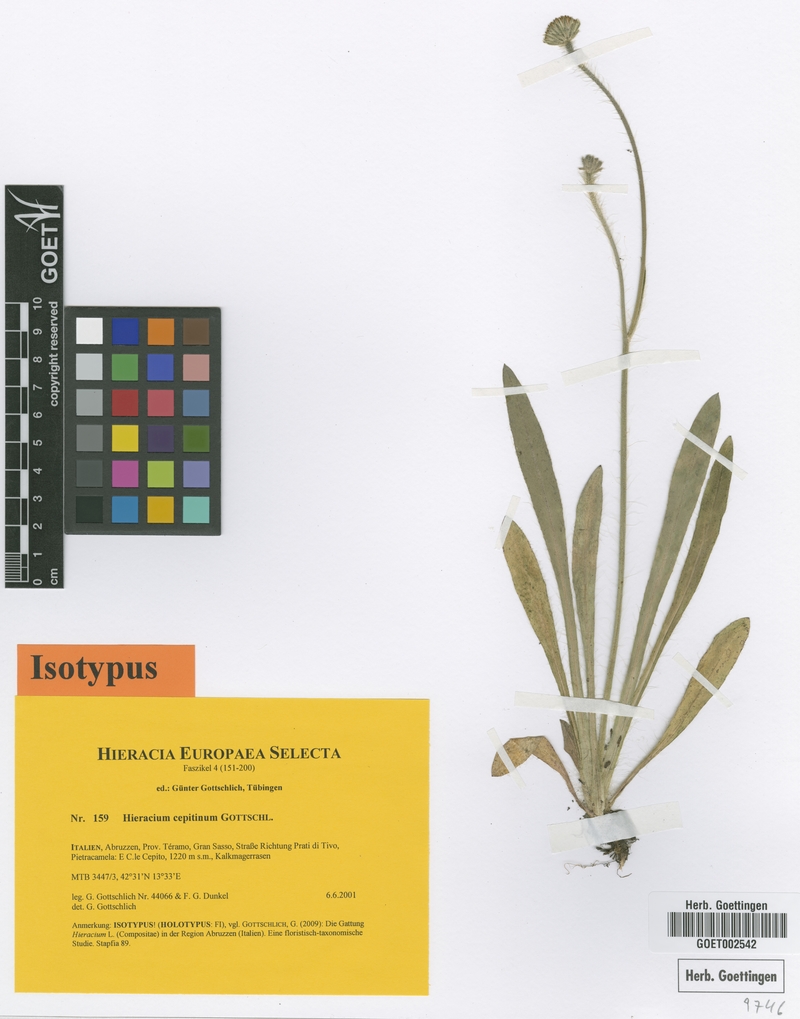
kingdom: Plantae
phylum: Tracheophyta
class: Magnoliopsida
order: Asterales
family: Asteraceae
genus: Pilosella
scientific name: Pilosella cepitina
